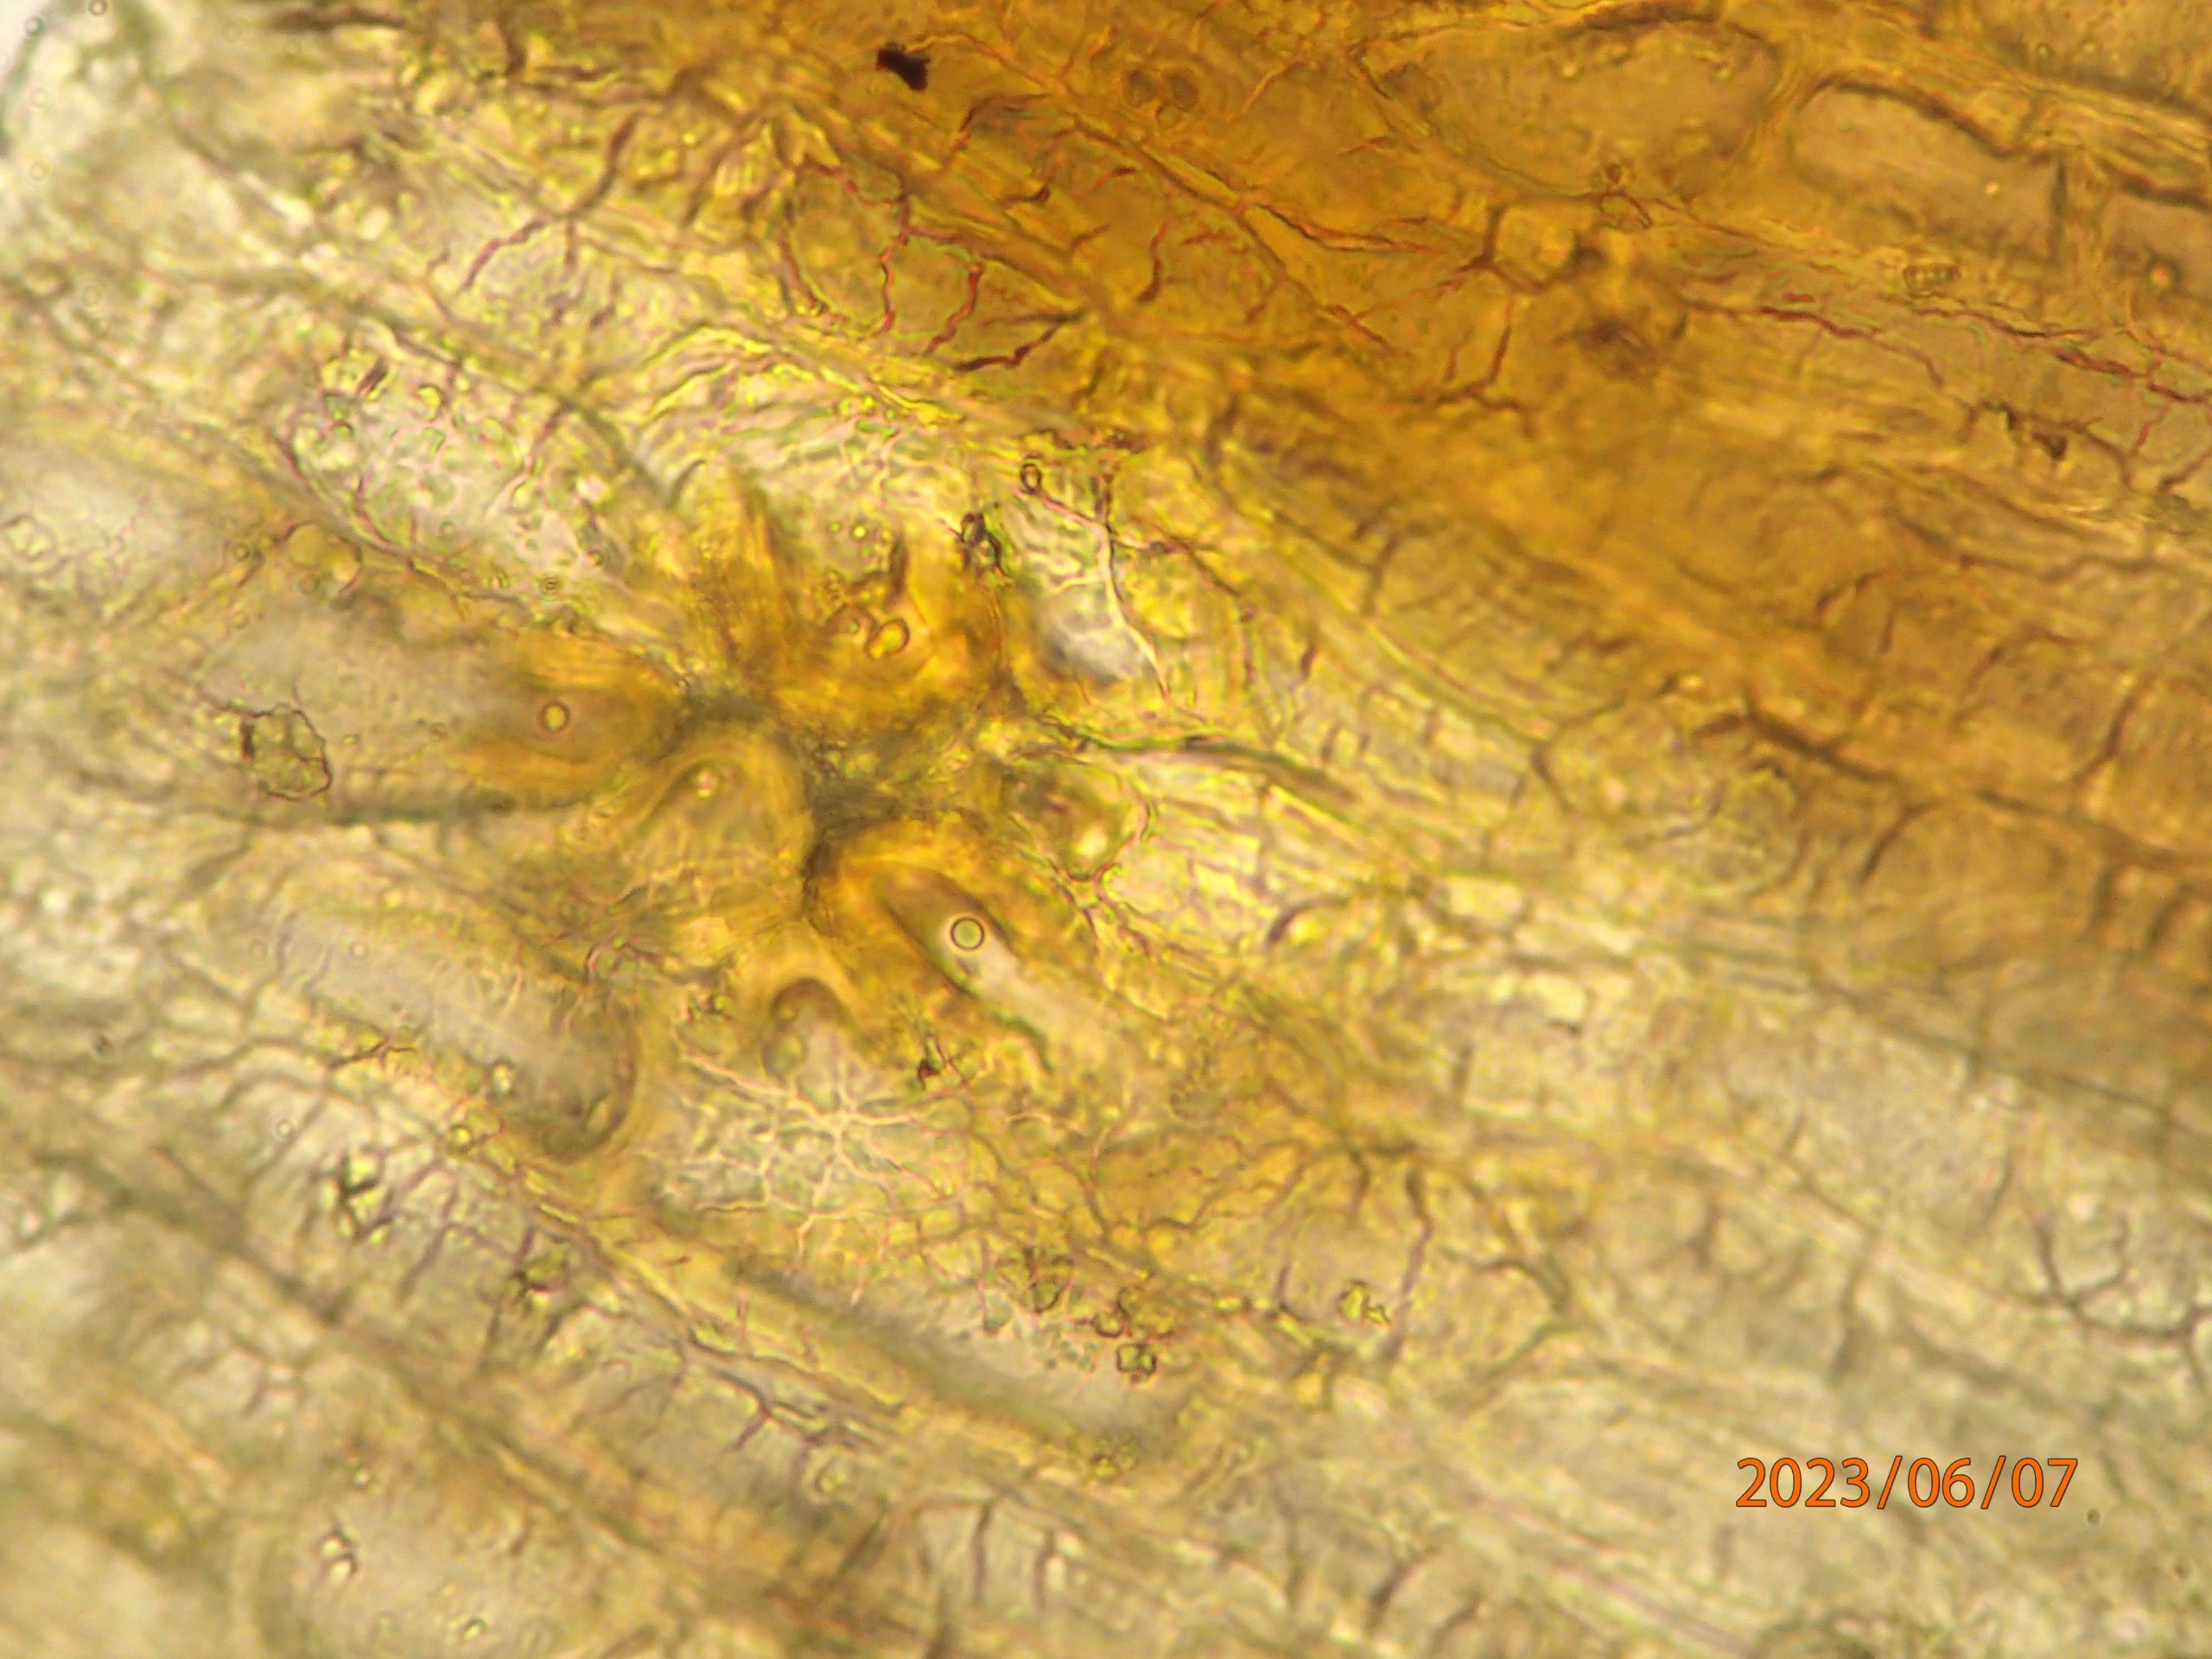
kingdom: Plantae
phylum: Bryophyta
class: Bryopsida
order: Orthotrichales
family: Orthotrichaceae
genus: Orthotrichum
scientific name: Orthotrichum cupulatum
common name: Skål-furehætte
